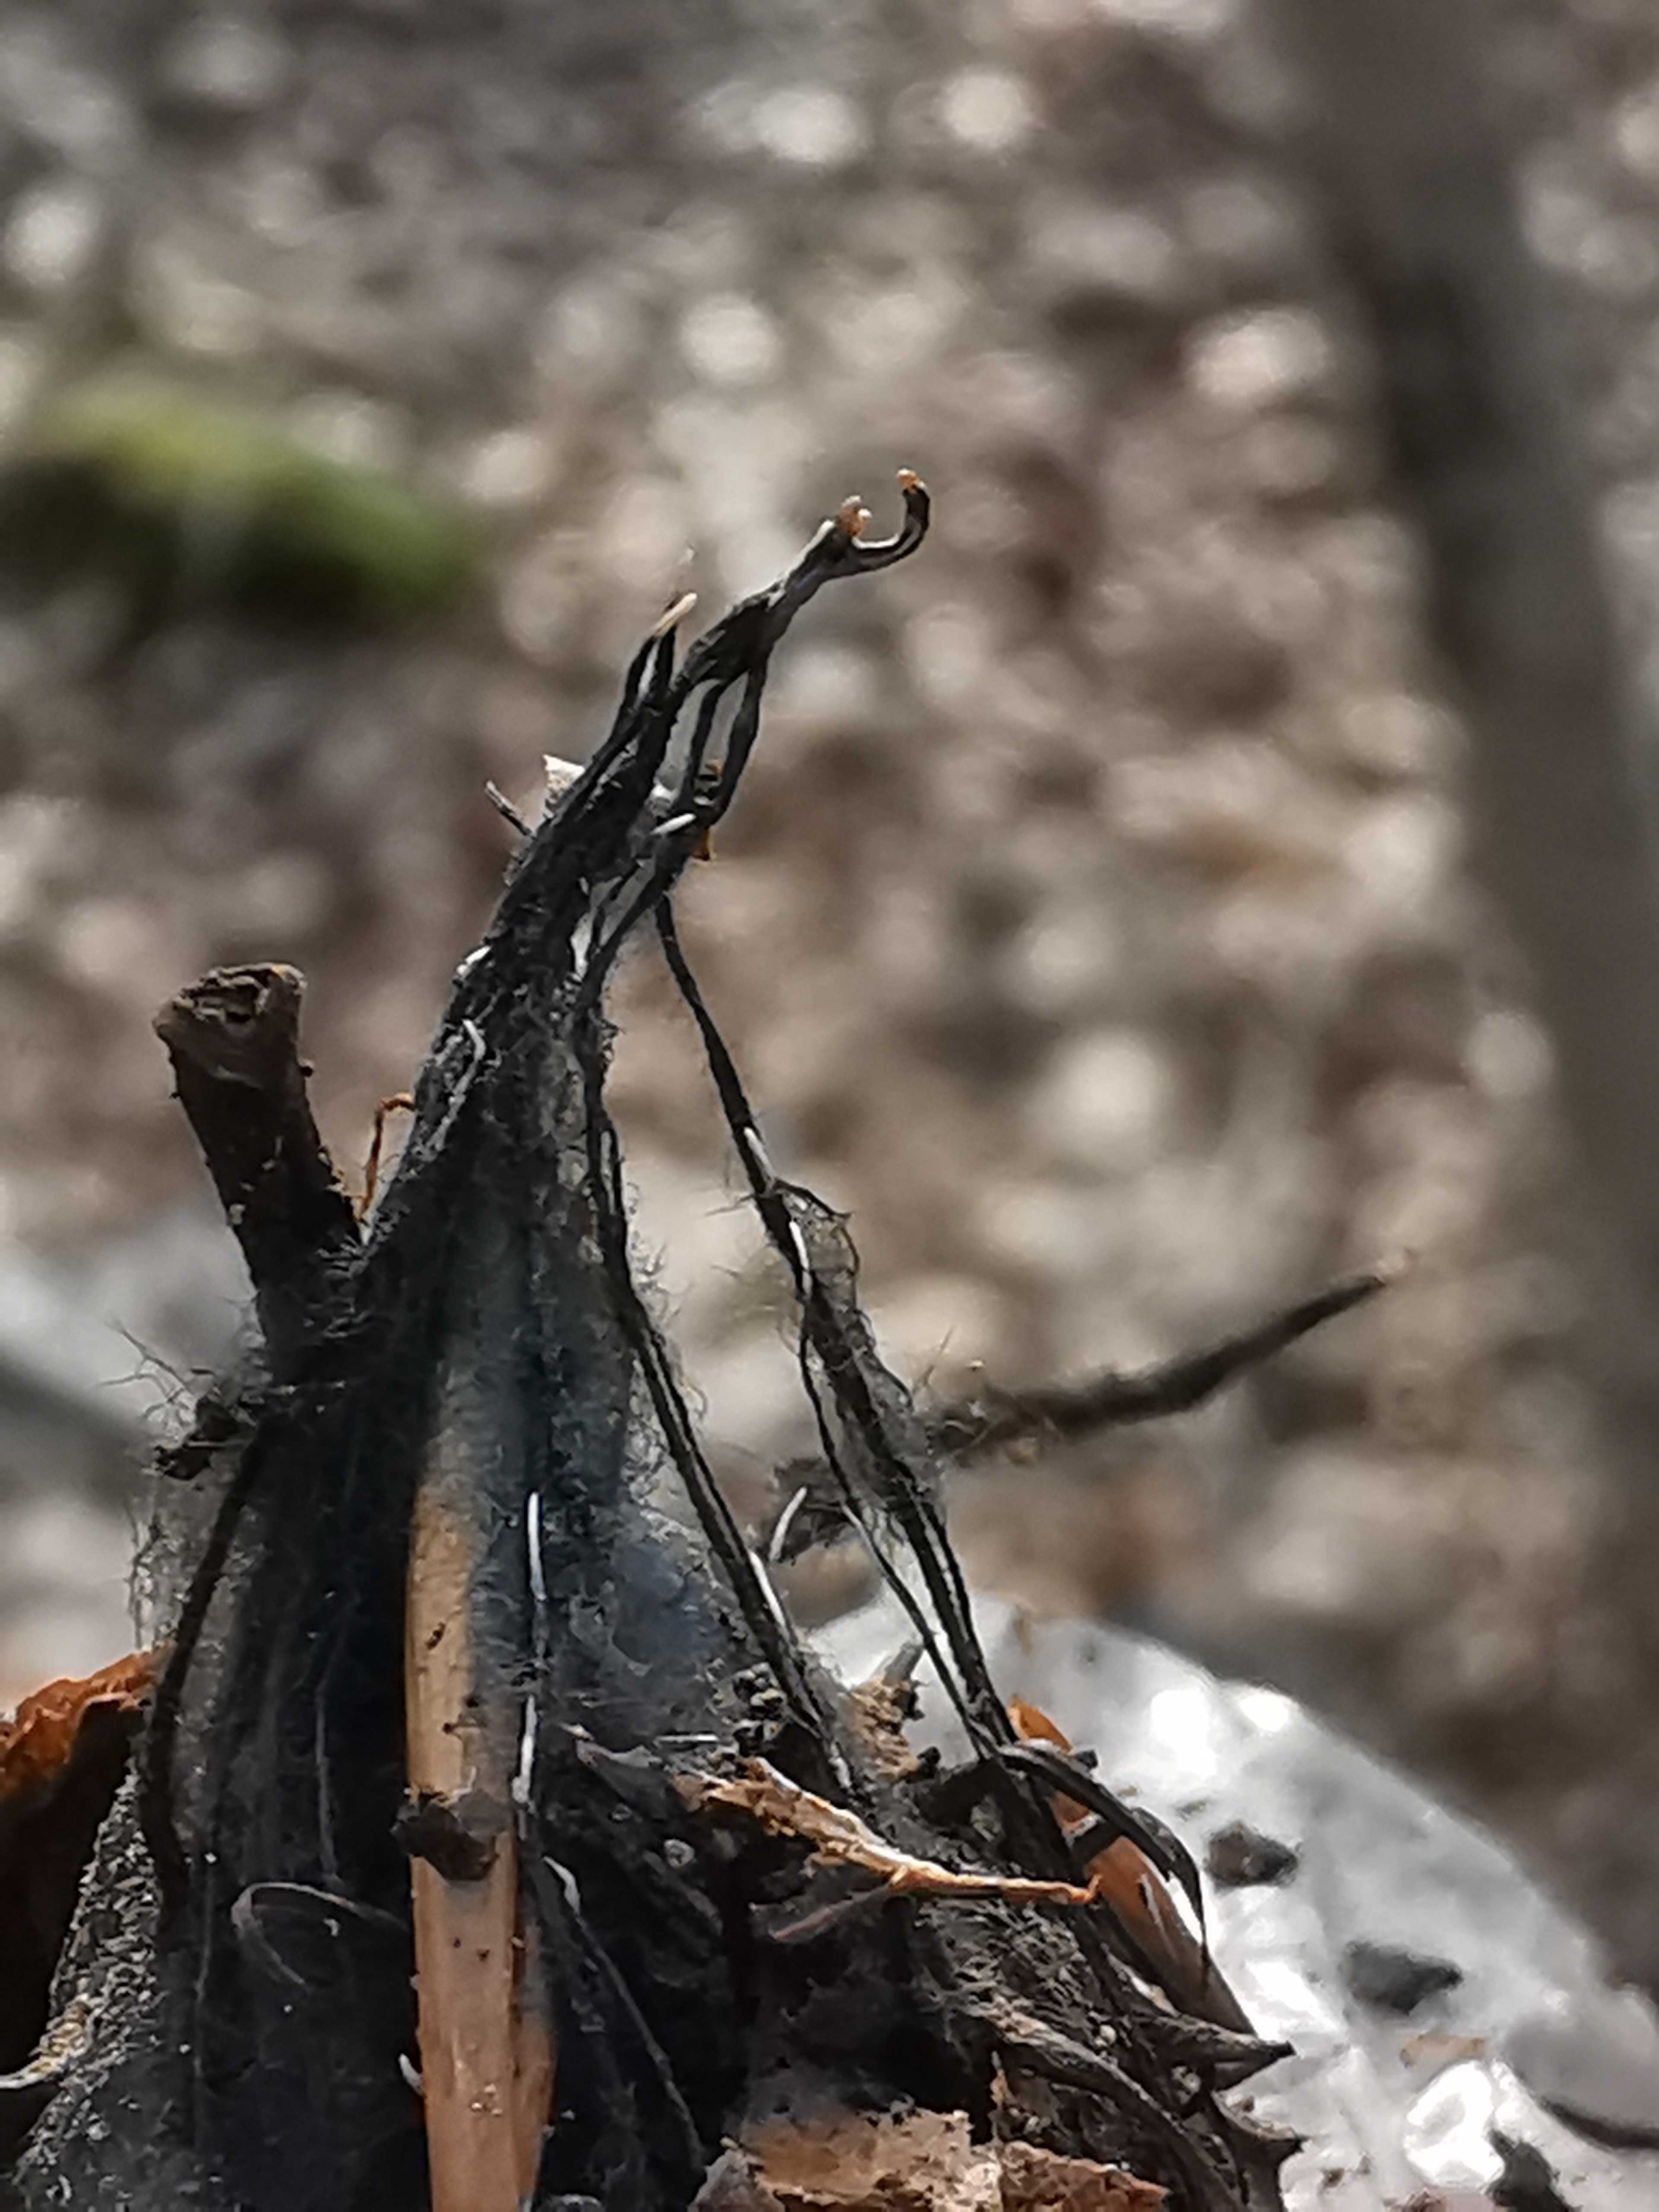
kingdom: Fungi
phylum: Ascomycota
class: Sordariomycetes
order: Xylariales
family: Xylariaceae
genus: Xylaria
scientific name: Xylaria carpophila
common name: bogskål-stødsvamp
